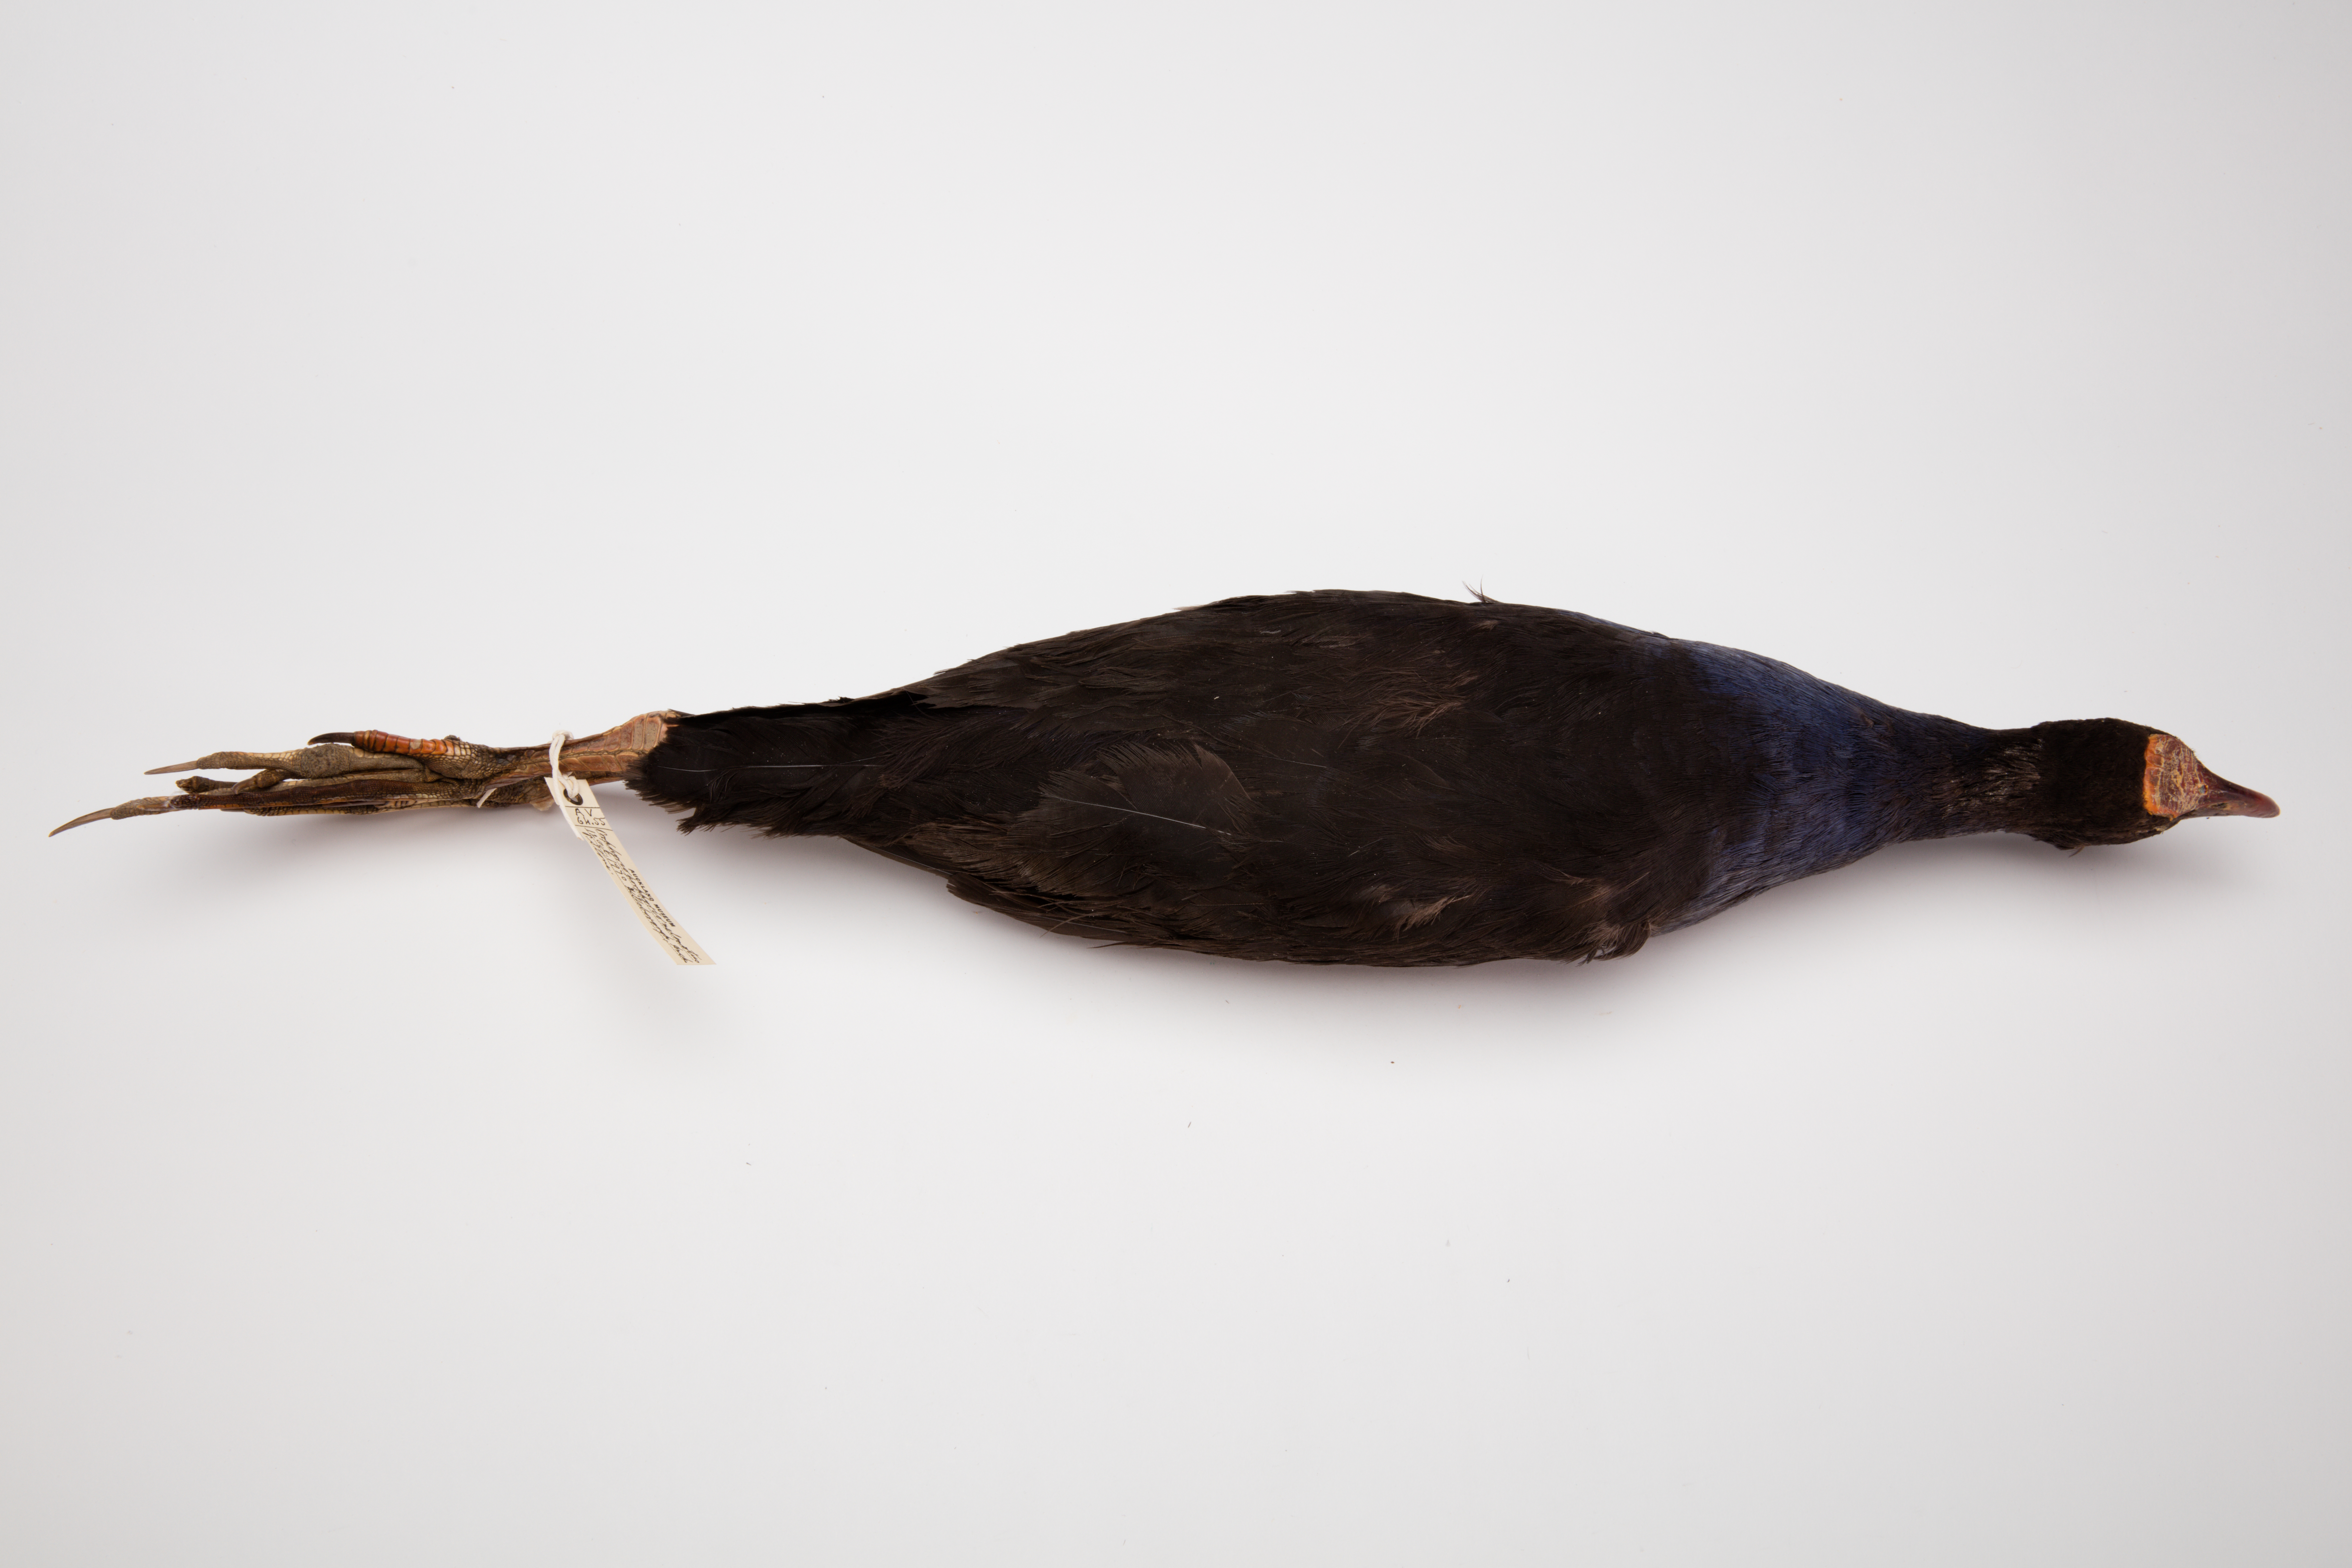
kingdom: Animalia
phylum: Chordata
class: Aves
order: Gruiformes
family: Rallidae
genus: Porphyrio
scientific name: Porphyrio melanotus
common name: Australasian swamphen
